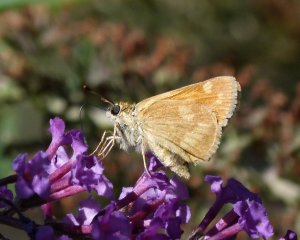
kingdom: Animalia
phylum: Arthropoda
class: Insecta
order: Lepidoptera
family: Hesperiidae
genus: Ochlodes
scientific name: Ochlodes sylvanoides
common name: Woodland Skipper
